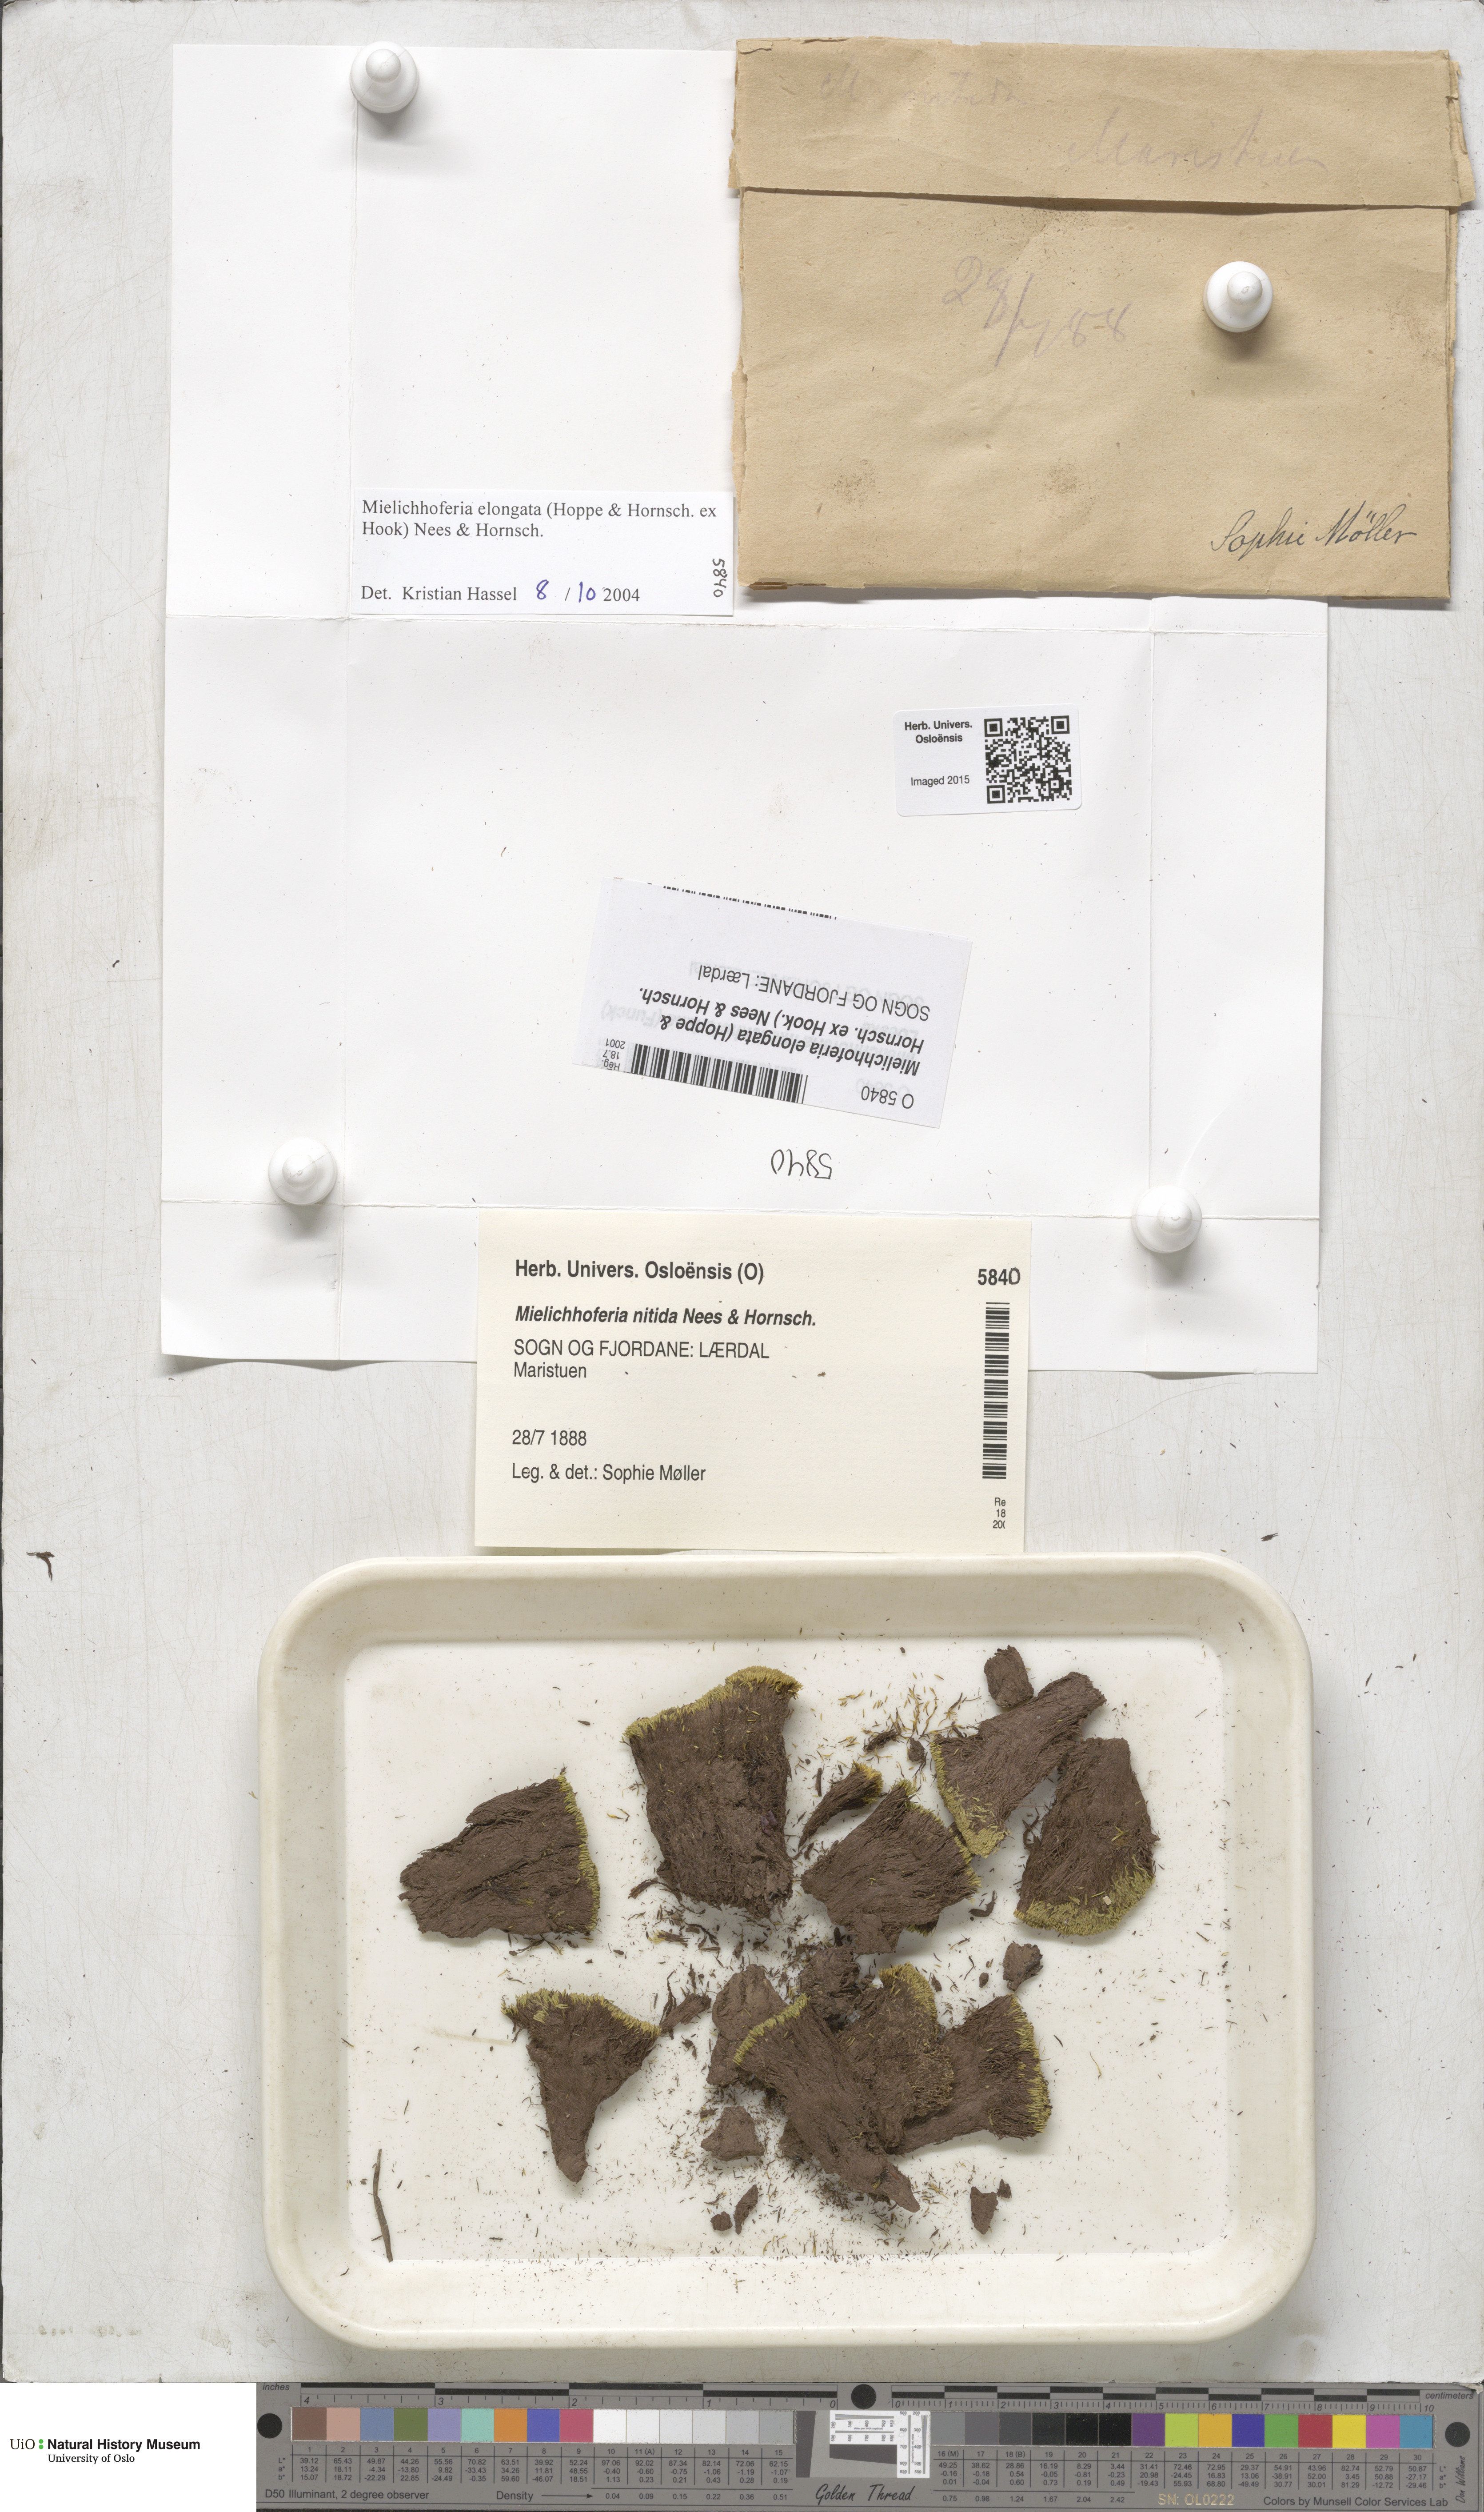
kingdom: Plantae
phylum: Bryophyta
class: Bryopsida
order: Bryales
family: Mniaceae
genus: Mielichhoferia
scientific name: Mielichhoferia elongata
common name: Elongate copper moss
